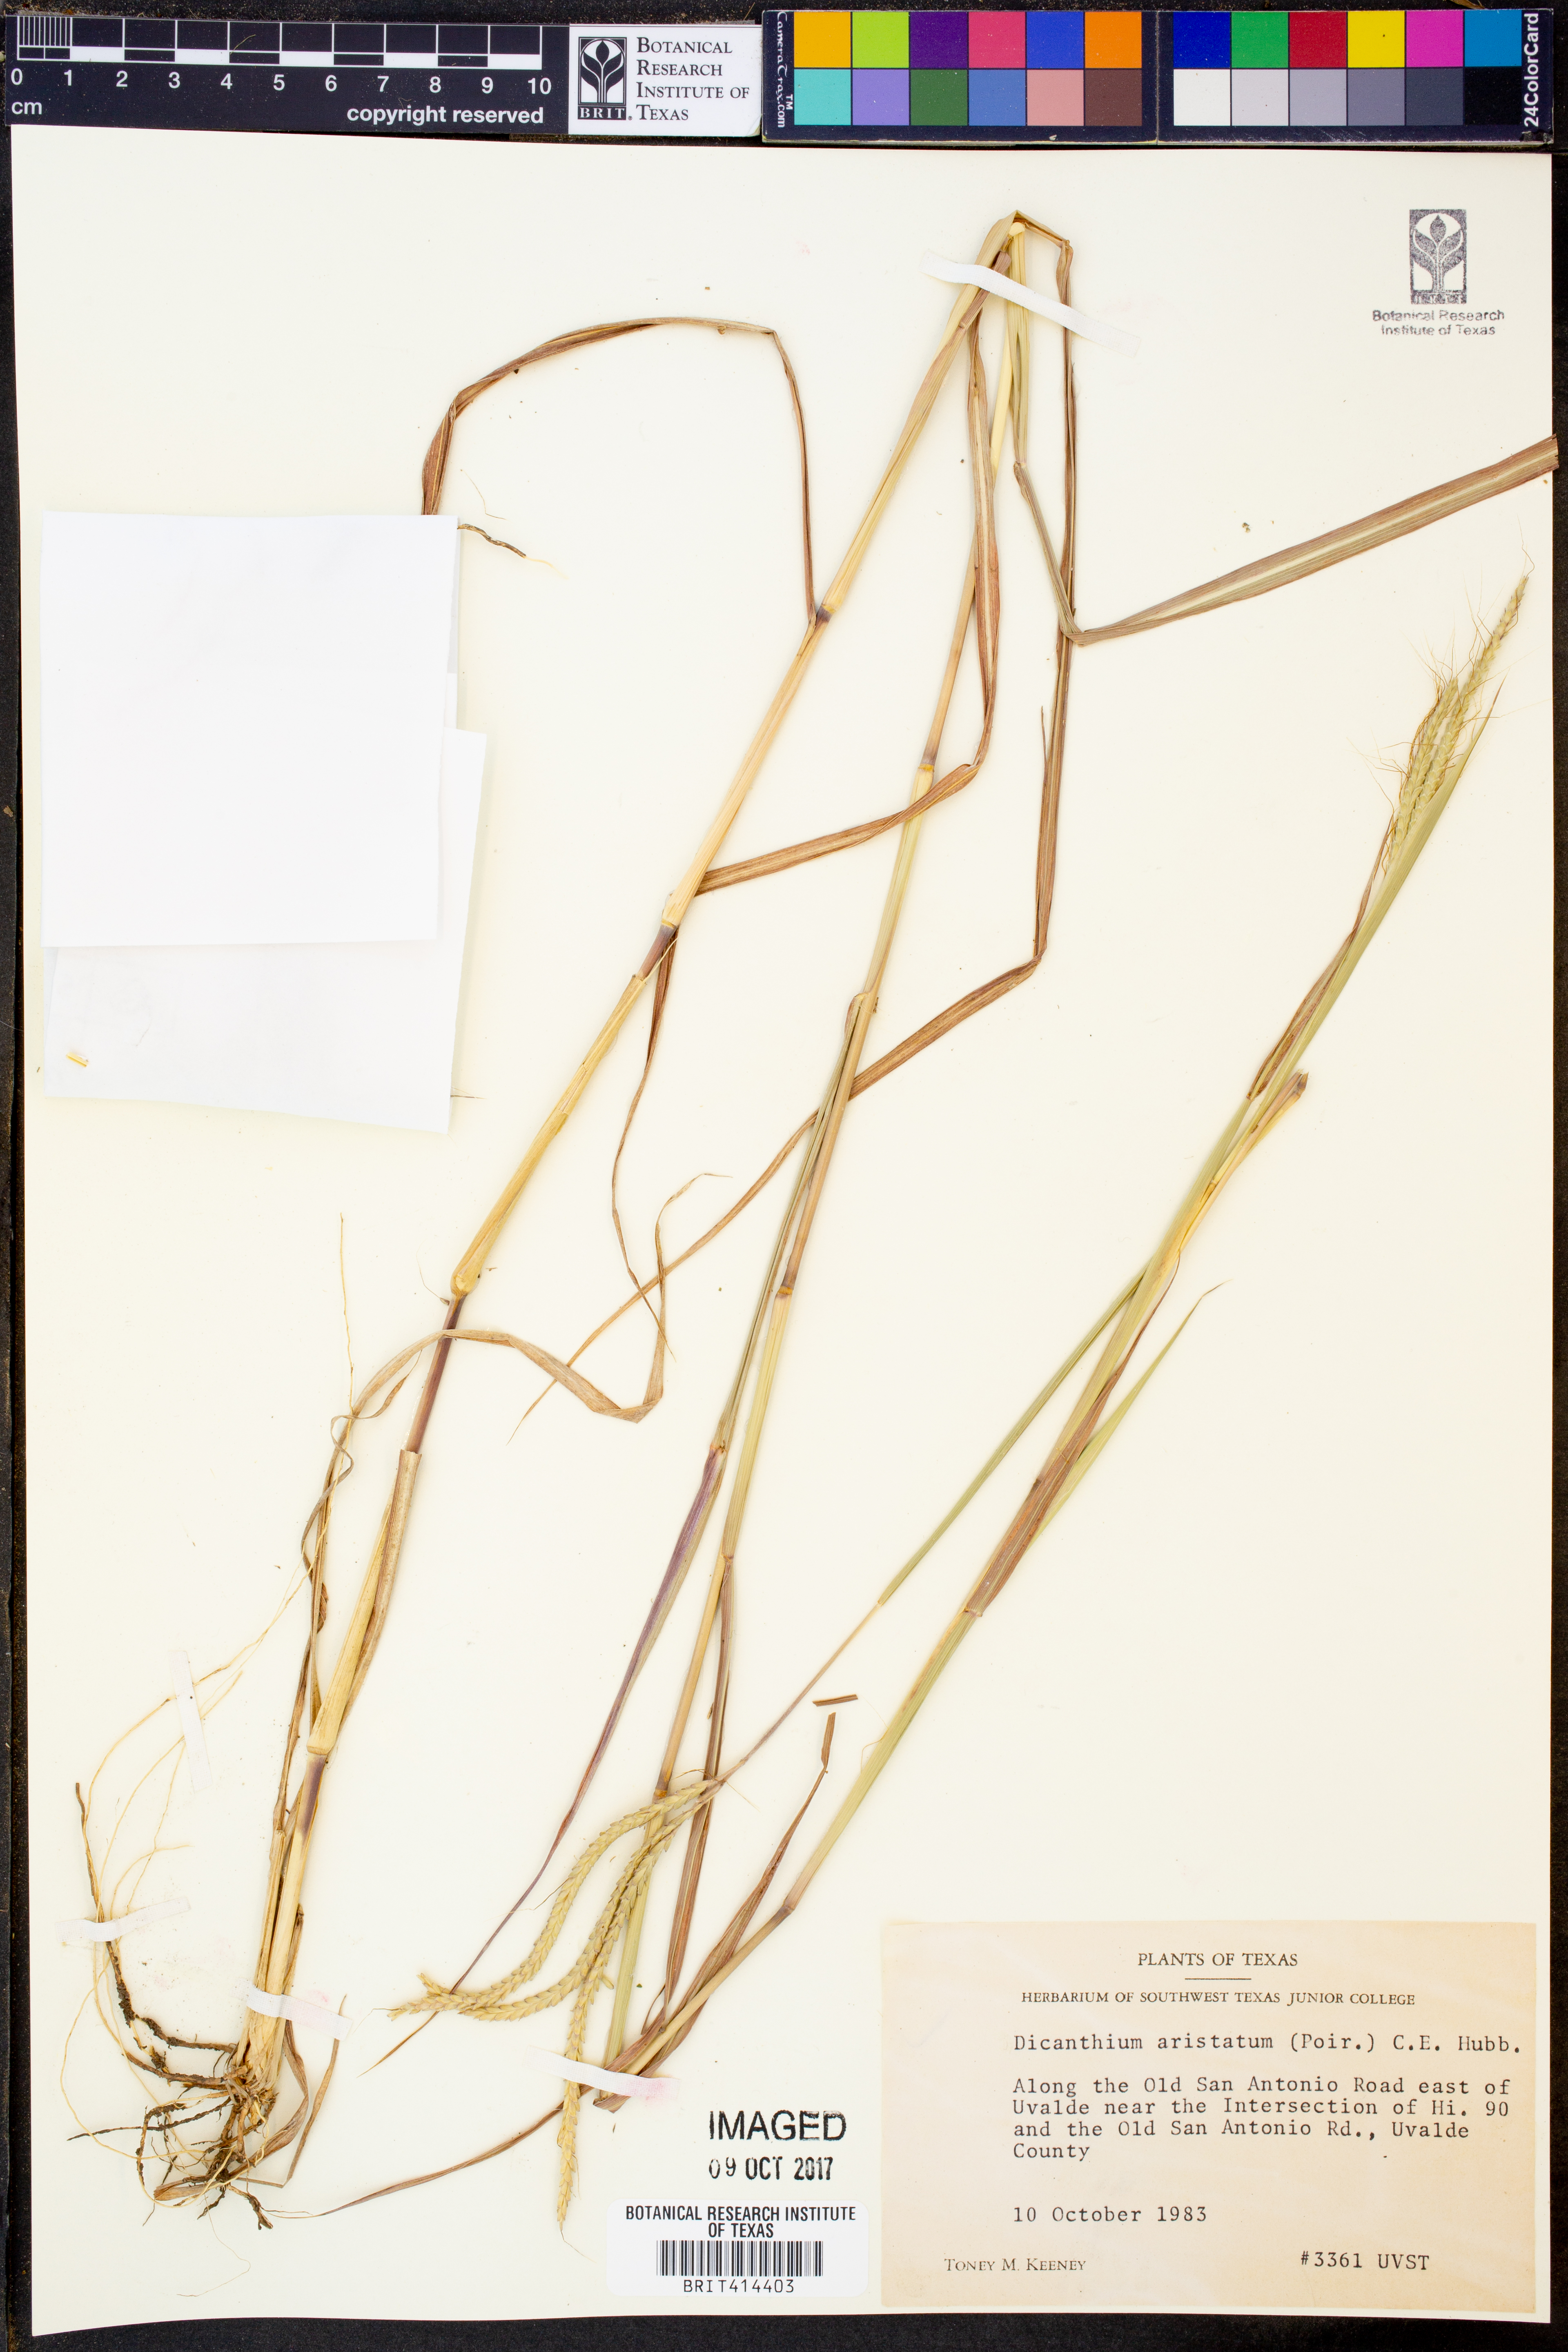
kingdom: Plantae
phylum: Tracheophyta
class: Liliopsida
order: Poales
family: Poaceae
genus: Dichanthium
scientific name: Dichanthium aristatum
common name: Angleton bluestem
